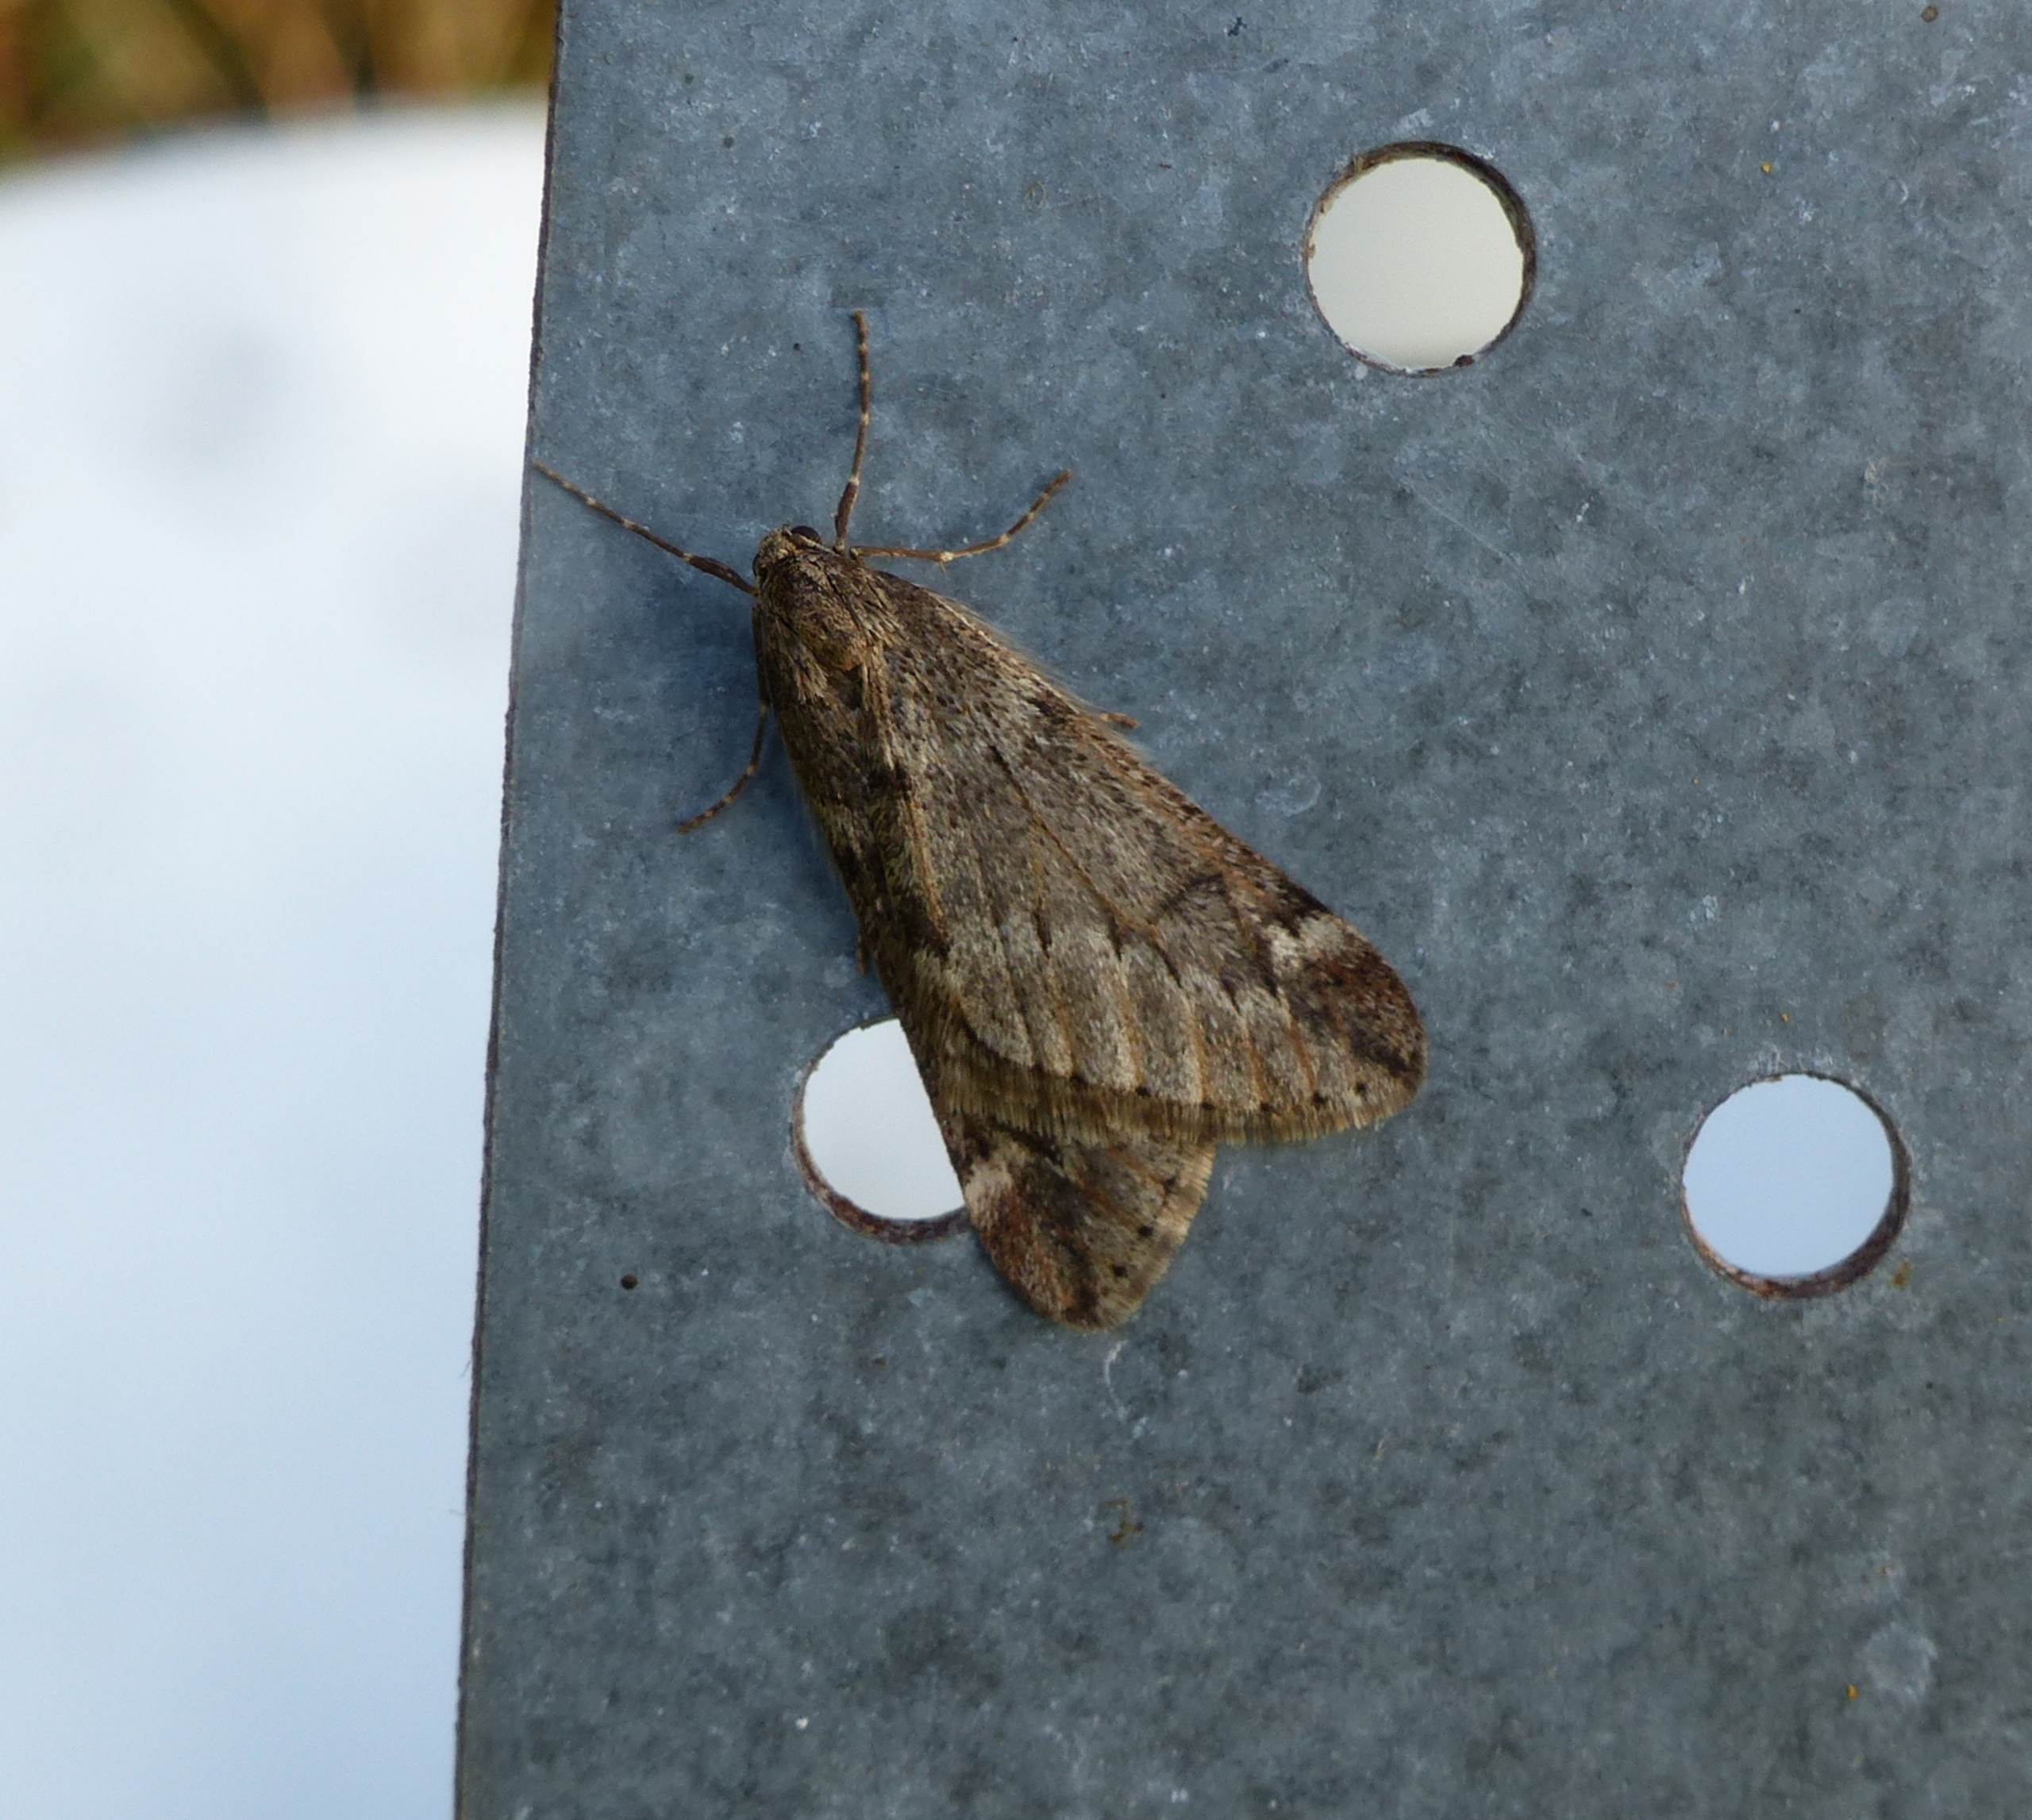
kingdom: Animalia
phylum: Arthropoda
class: Insecta
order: Lepidoptera
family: Geometridae
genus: Alsophila
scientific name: Alsophila aescularia
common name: Uldgumpmåler
